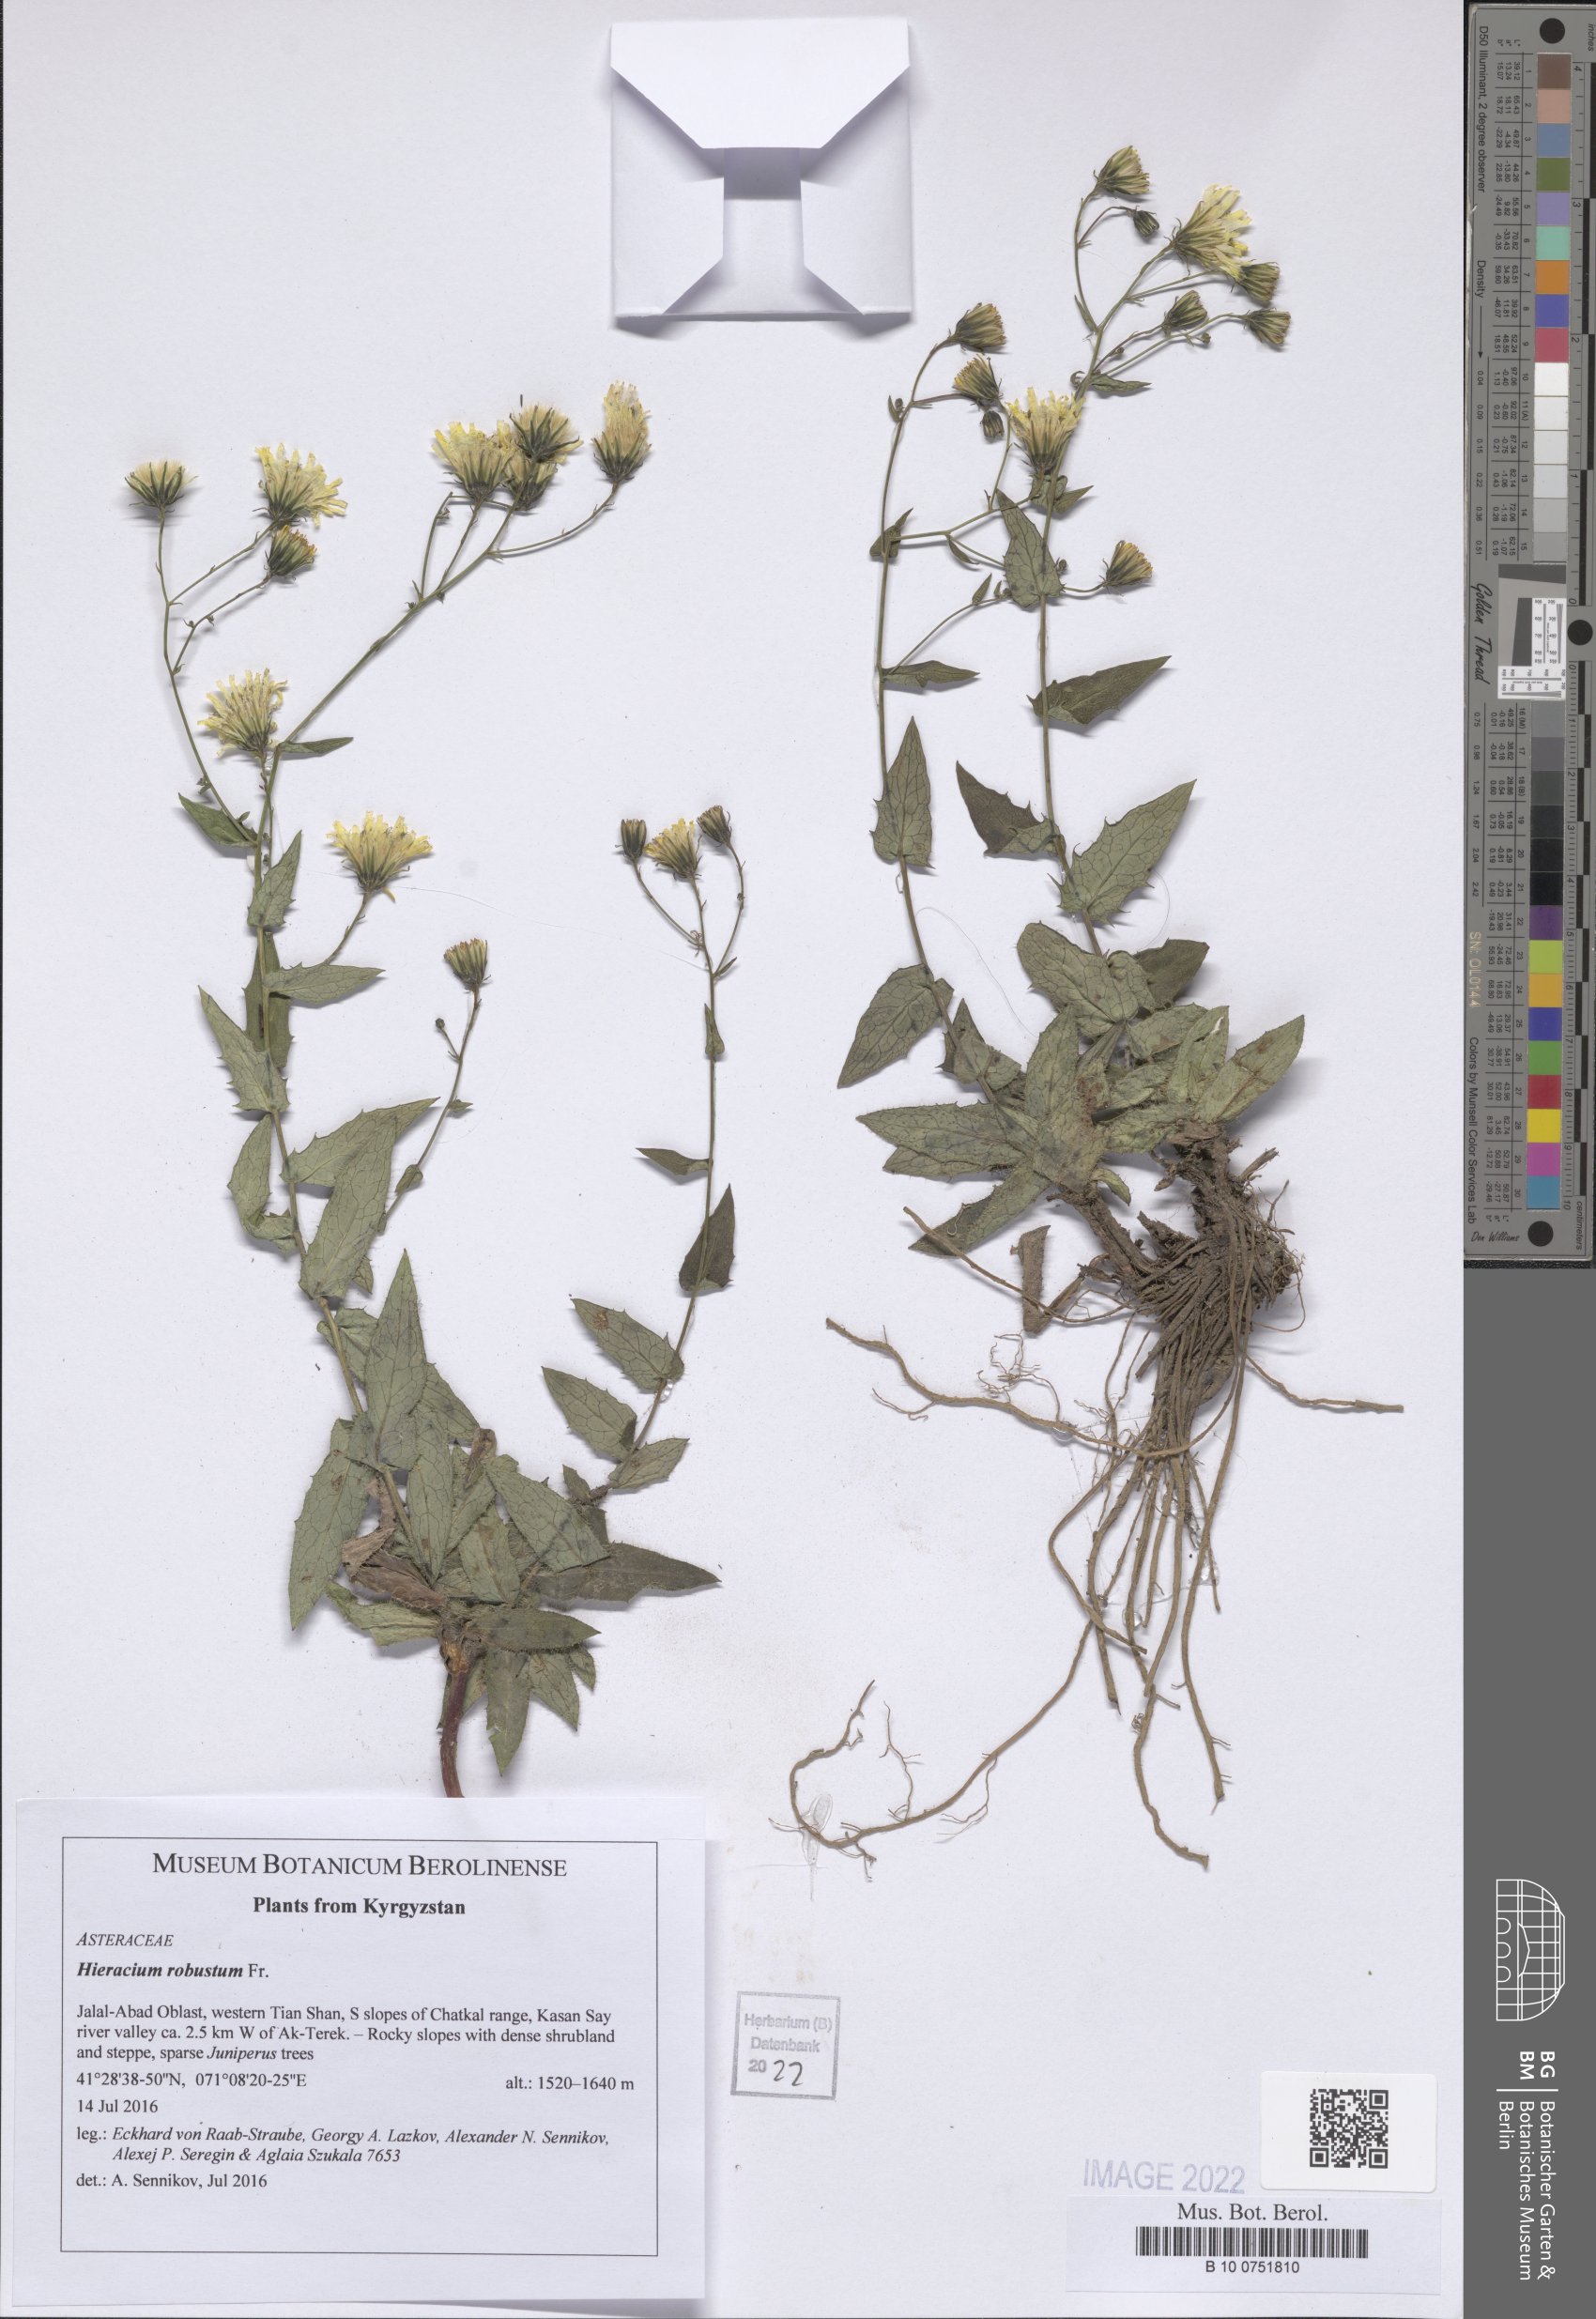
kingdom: Plantae
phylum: Tracheophyta
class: Magnoliopsida
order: Asterales
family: Asteraceae
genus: Hieracium
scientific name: Hieracium robustum
